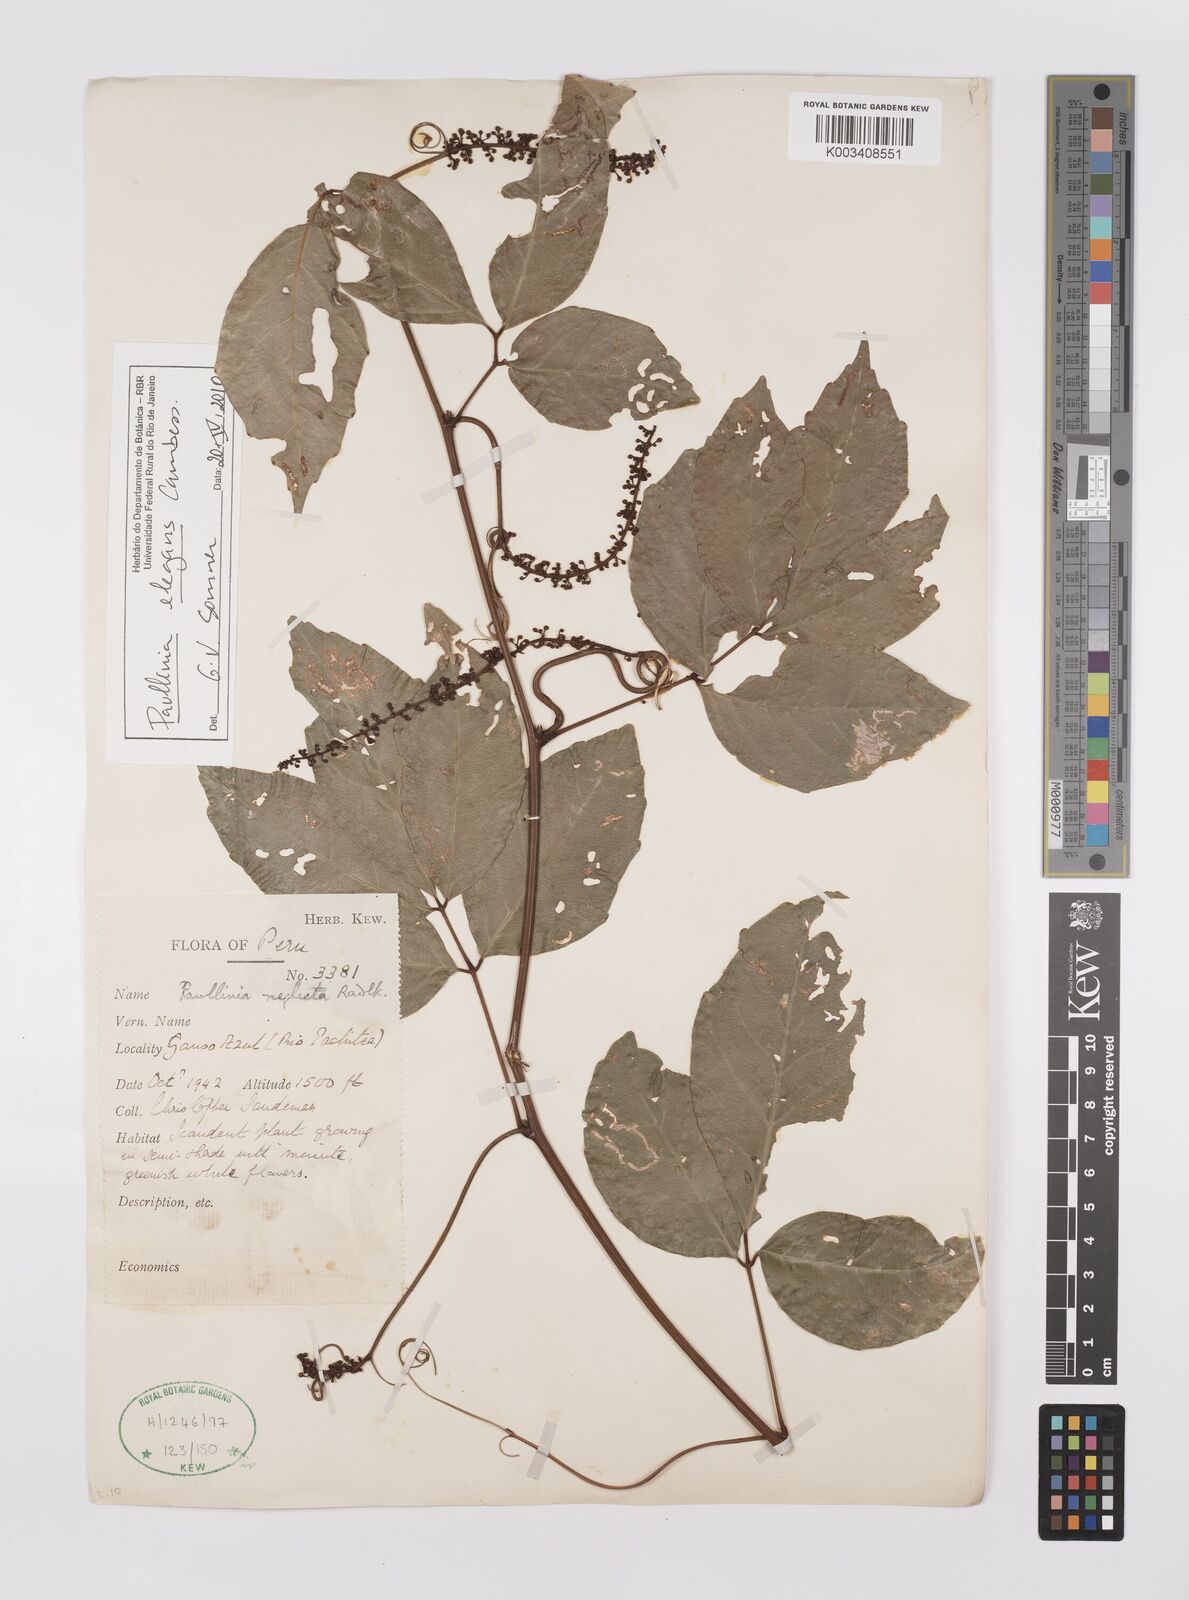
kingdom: Plantae
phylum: Tracheophyta
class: Magnoliopsida
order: Sapindales
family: Sapindaceae
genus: Paullinia
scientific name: Paullinia elegans
